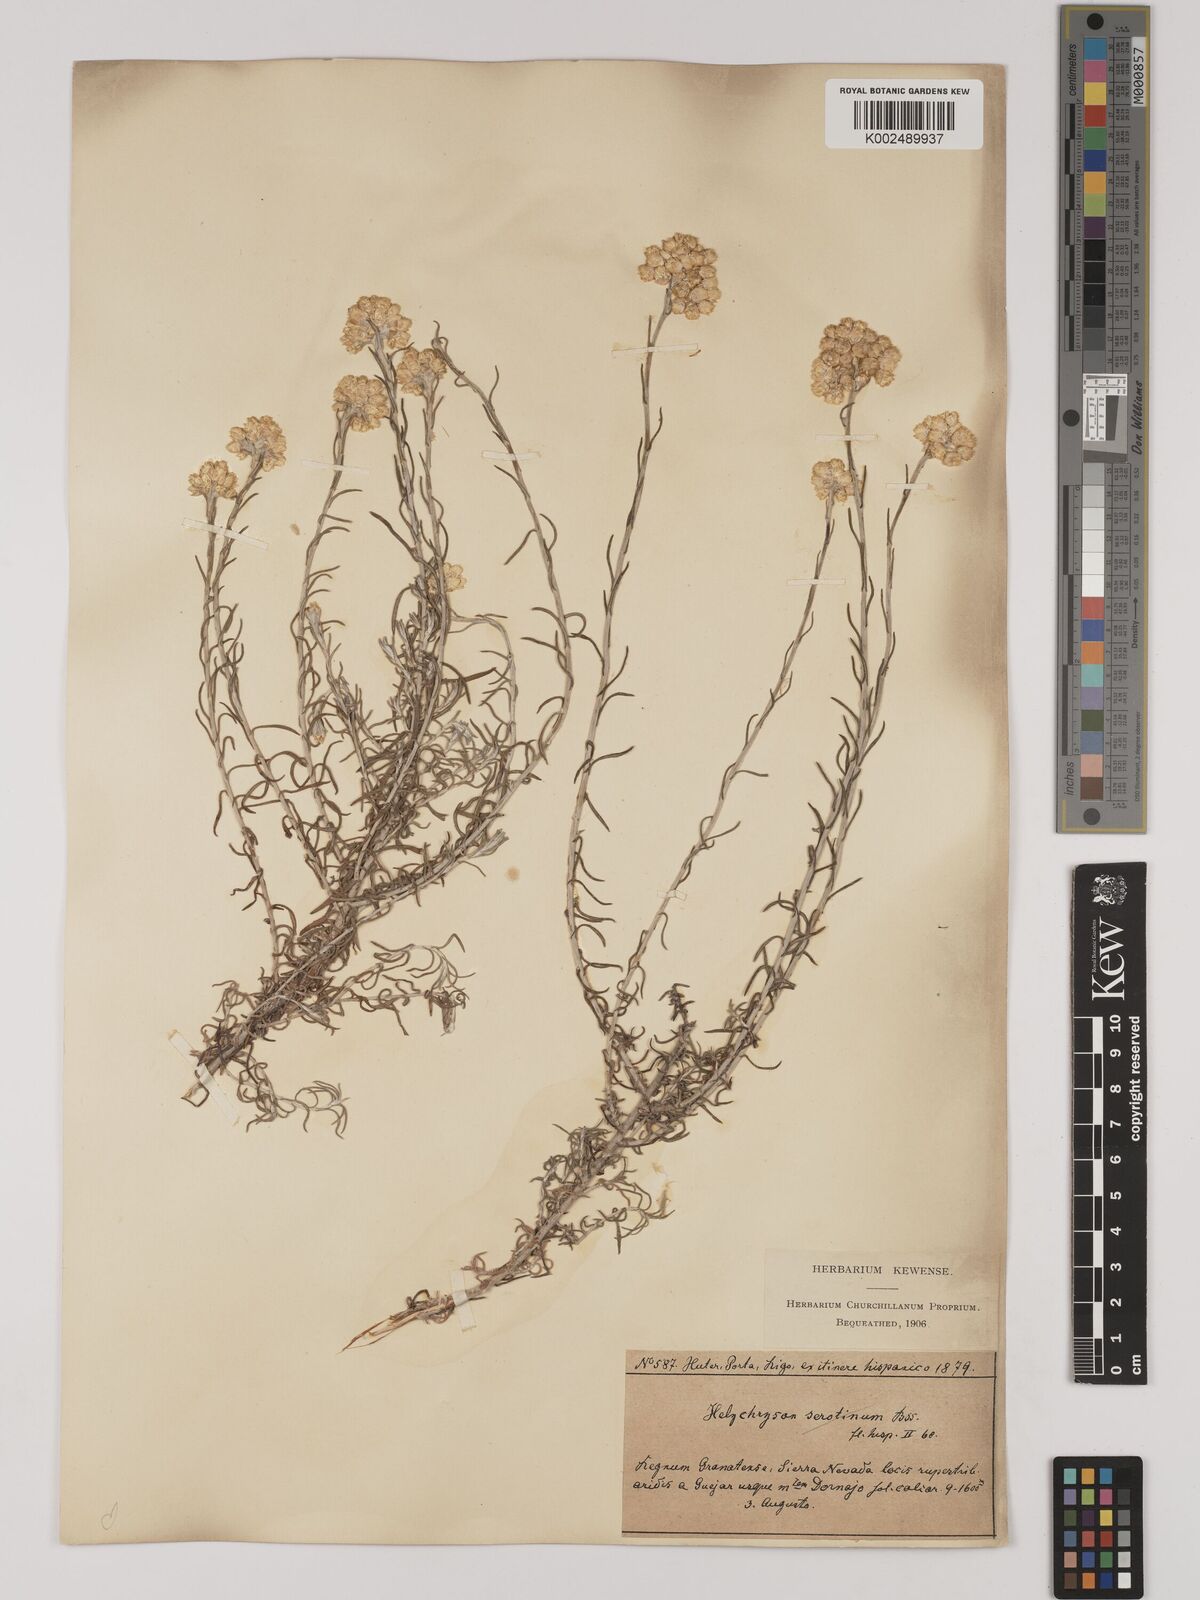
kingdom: Plantae
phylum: Tracheophyta
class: Magnoliopsida
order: Asterales
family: Asteraceae
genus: Helichrysum
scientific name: Helichrysum
